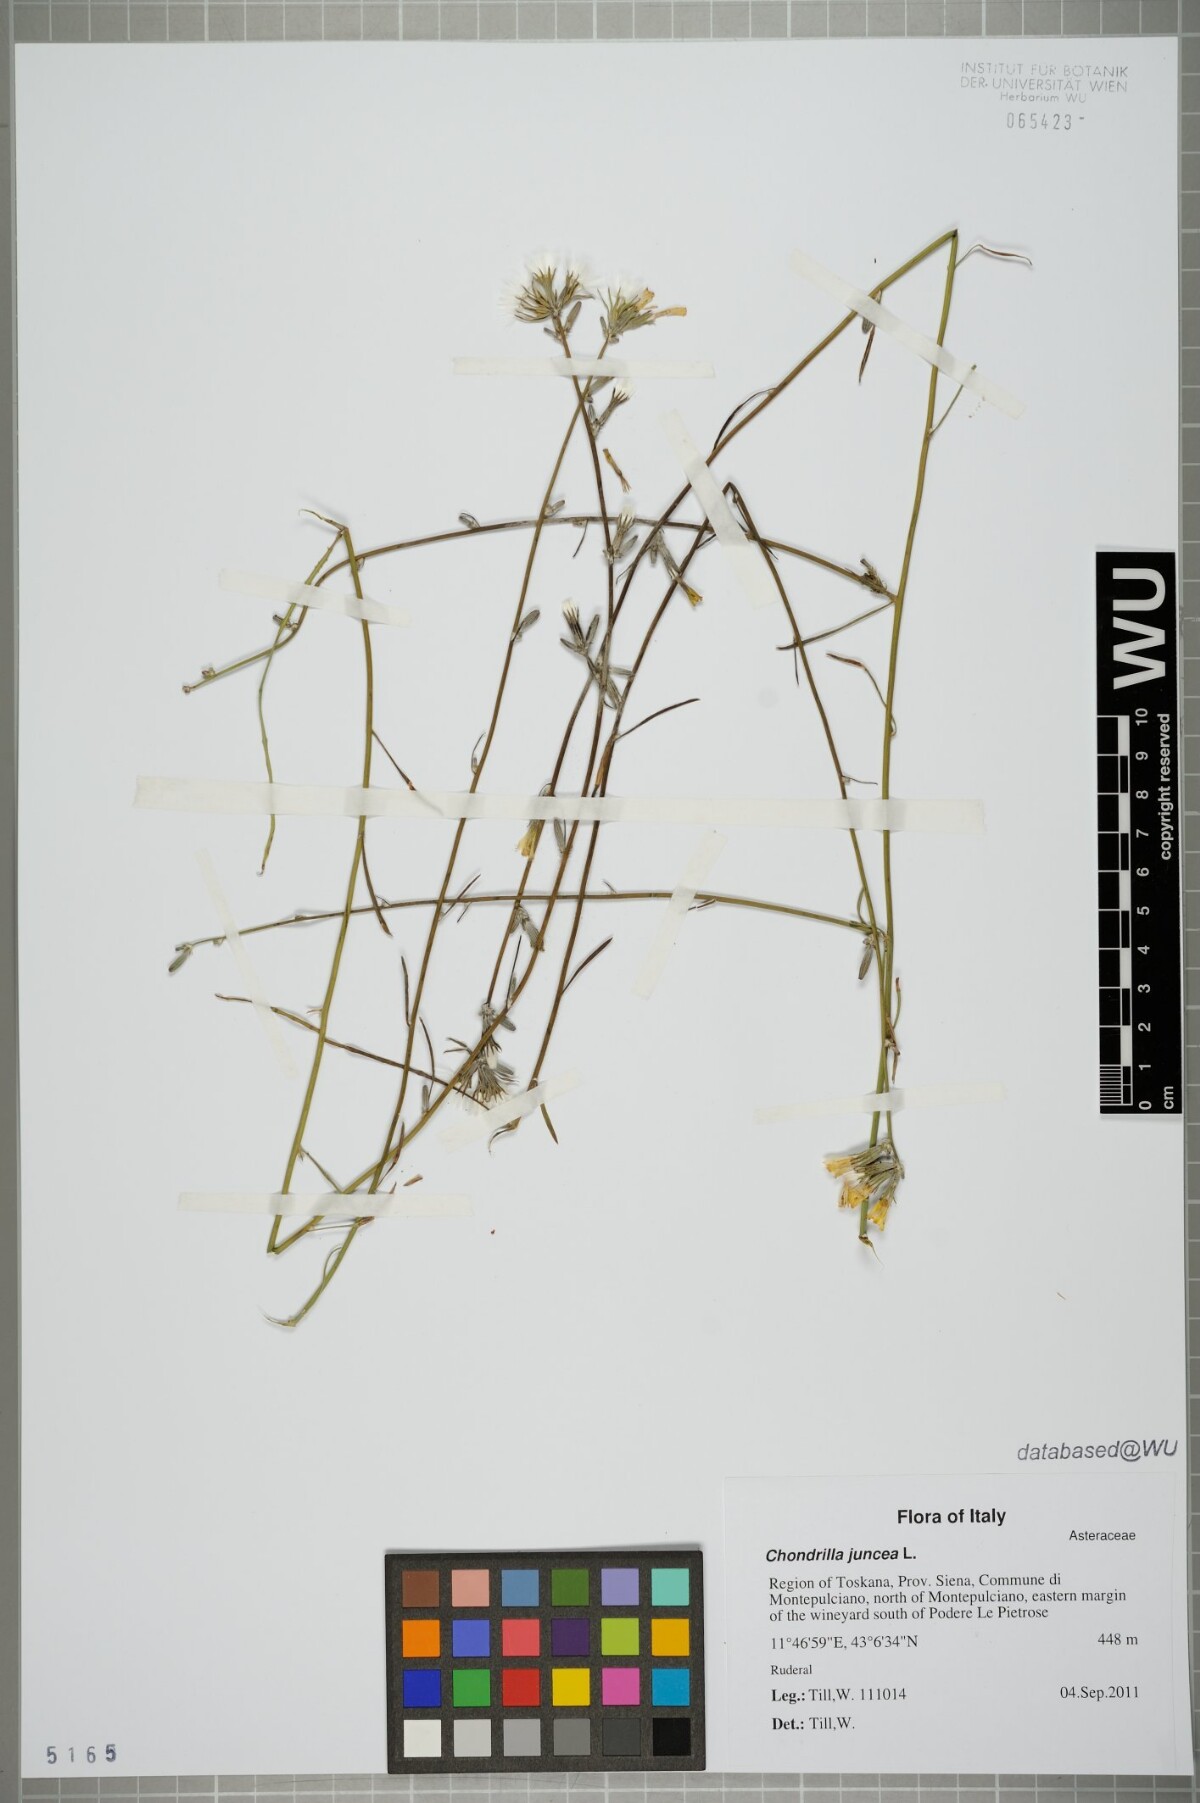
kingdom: Plantae
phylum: Tracheophyta
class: Magnoliopsida
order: Asterales
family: Asteraceae
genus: Chondrilla
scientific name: Chondrilla juncea
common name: Skeleton weed
